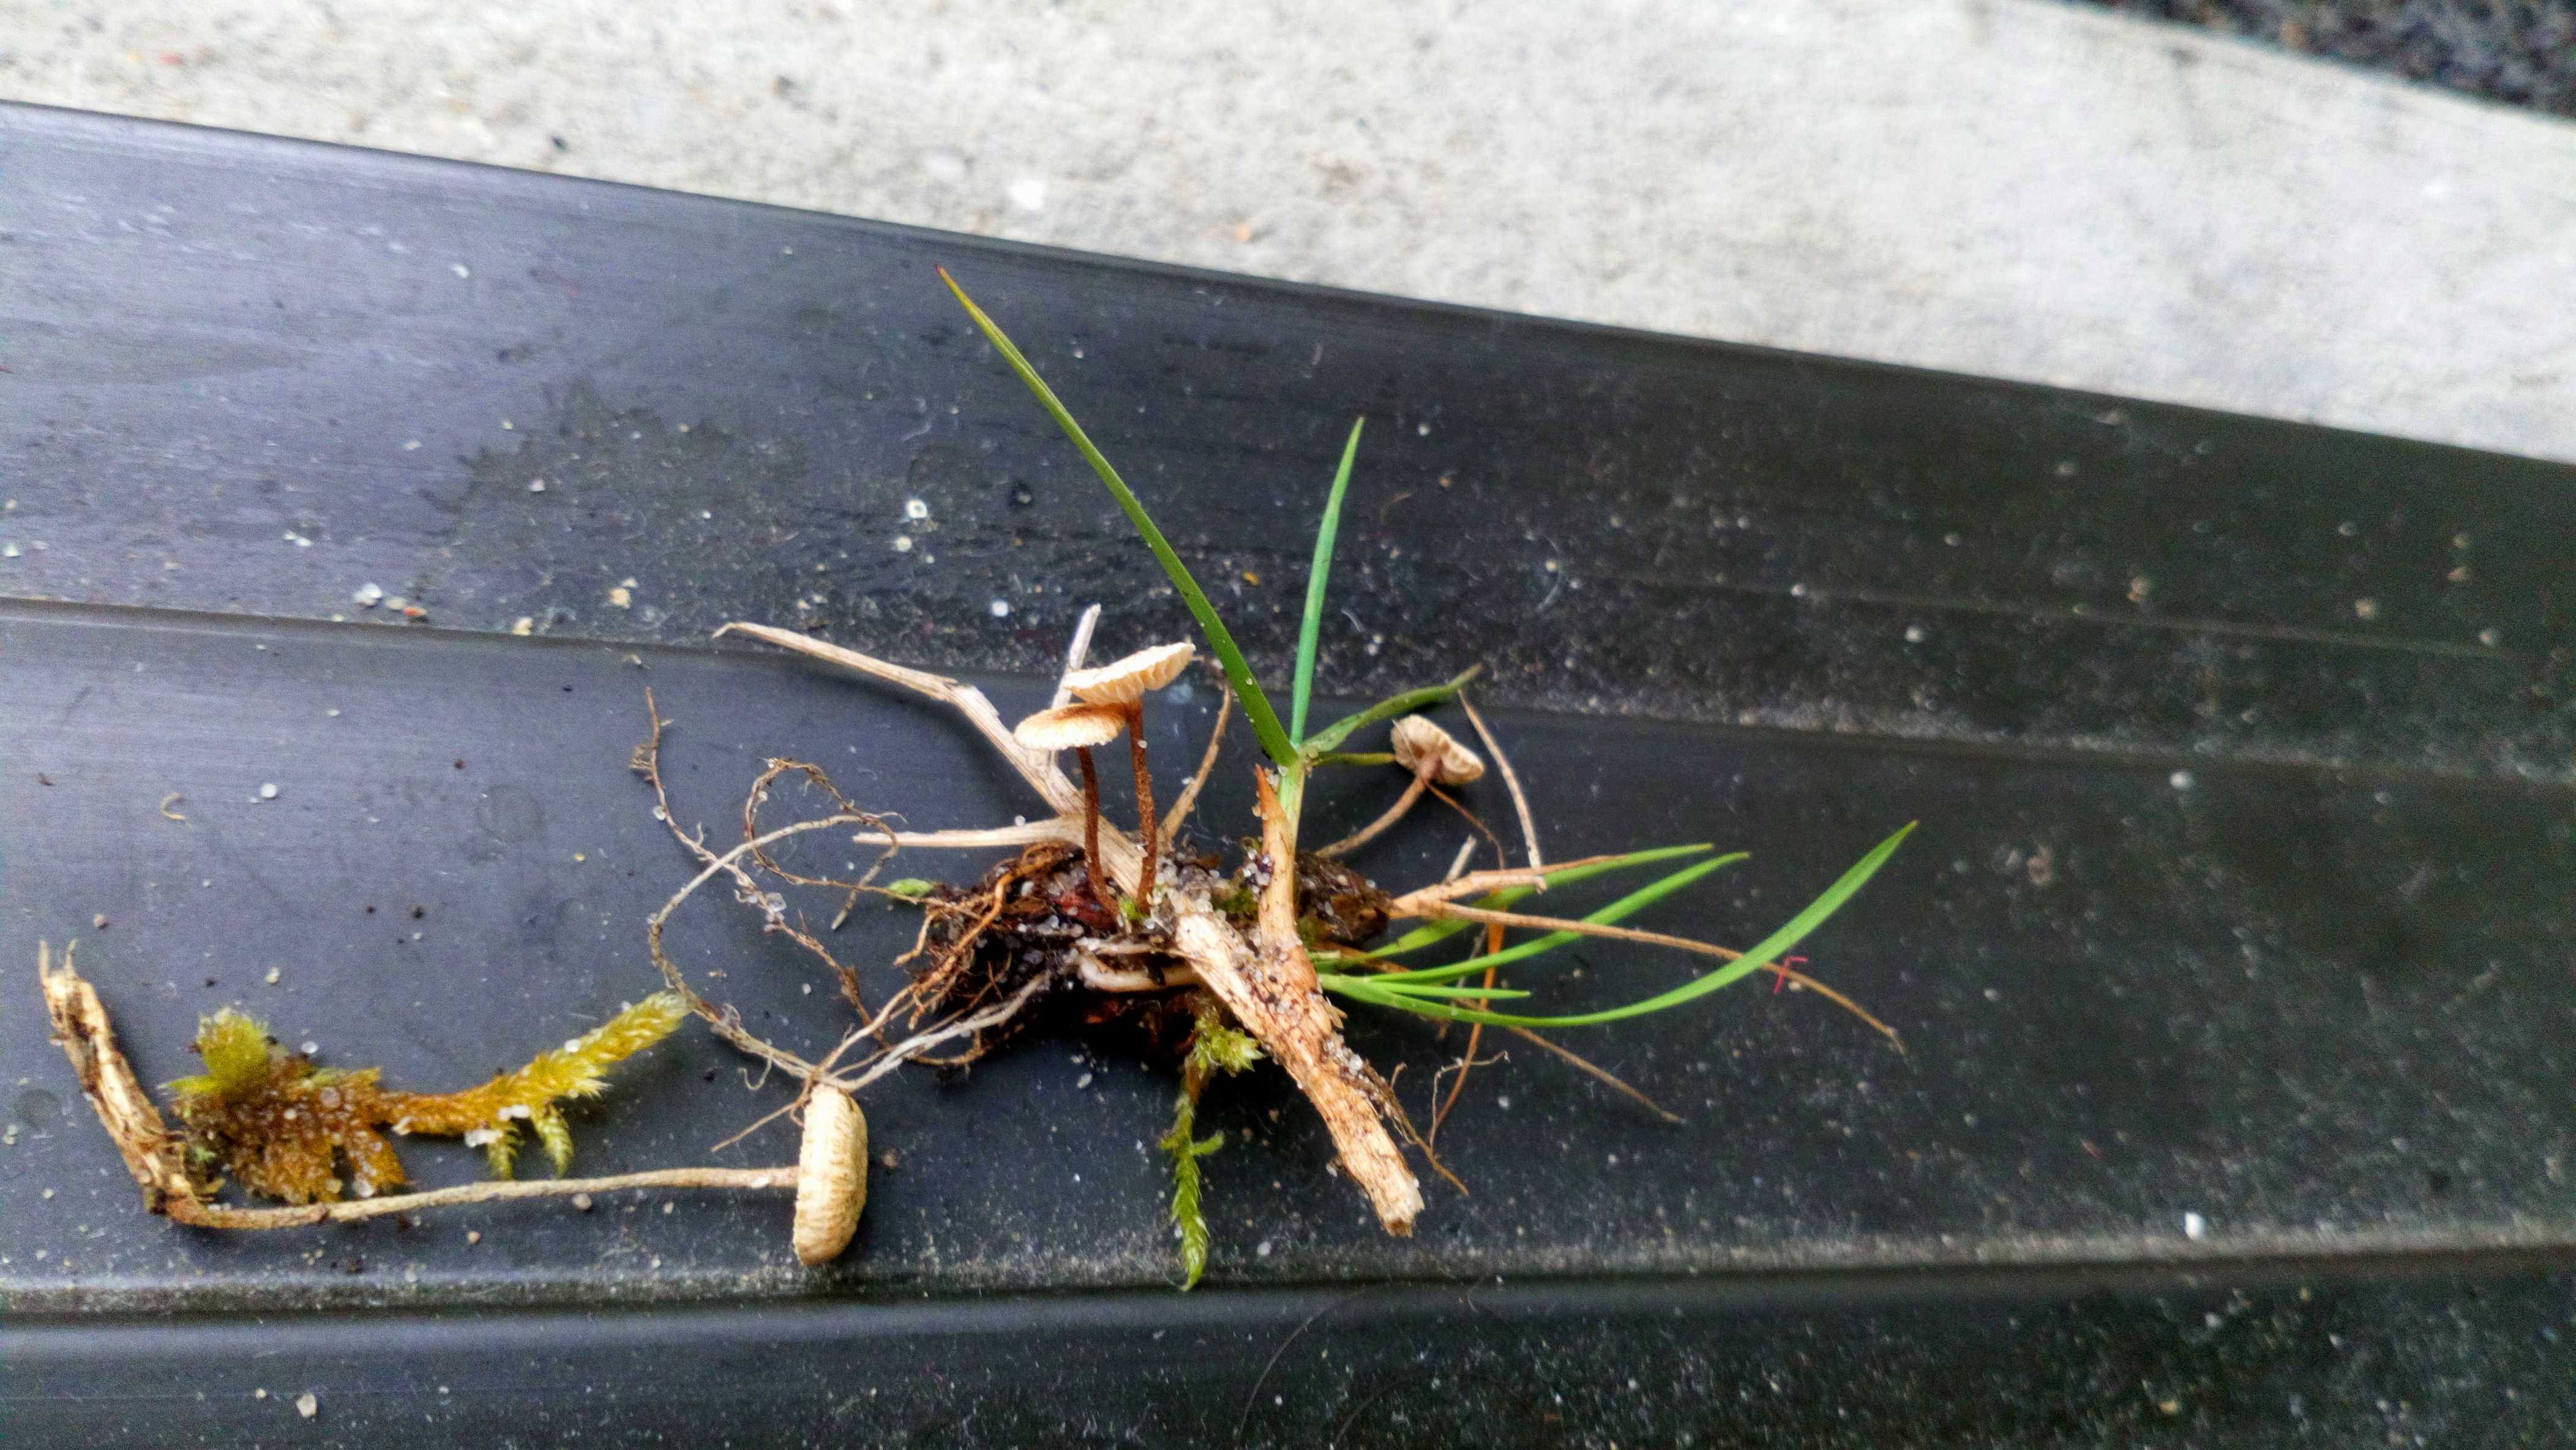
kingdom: Fungi
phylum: Basidiomycota
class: Agaricomycetes
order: Agaricales
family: Marasmiaceae
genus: Crinipellis
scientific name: Crinipellis scabella
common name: børstefod
